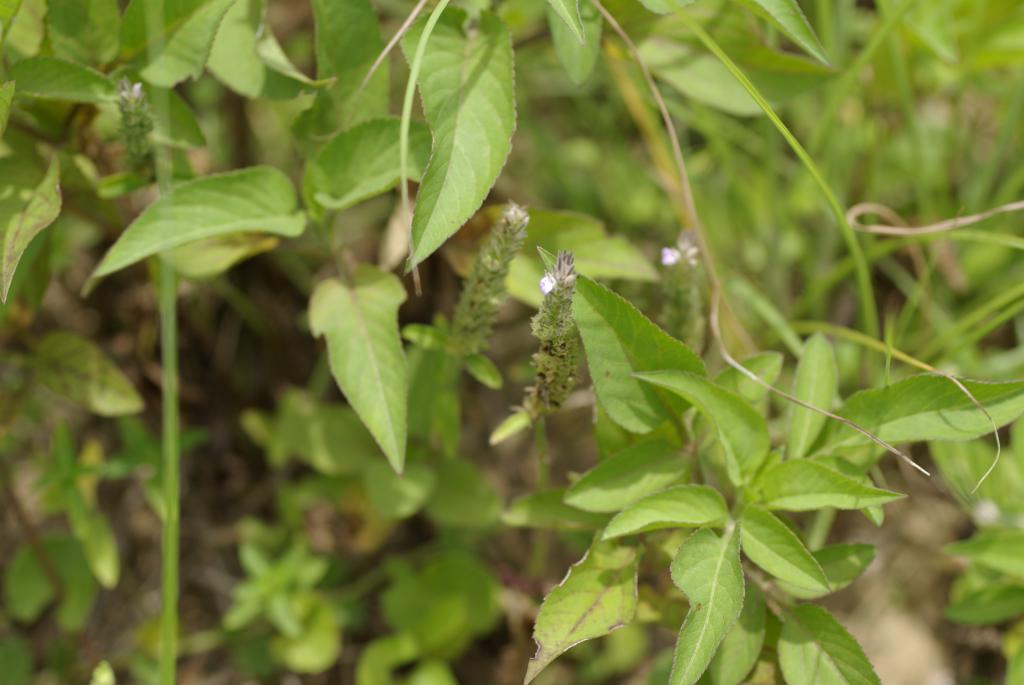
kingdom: Plantae
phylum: Tracheophyta
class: Magnoliopsida
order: Lamiales
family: Acanthaceae
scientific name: Acanthaceae
